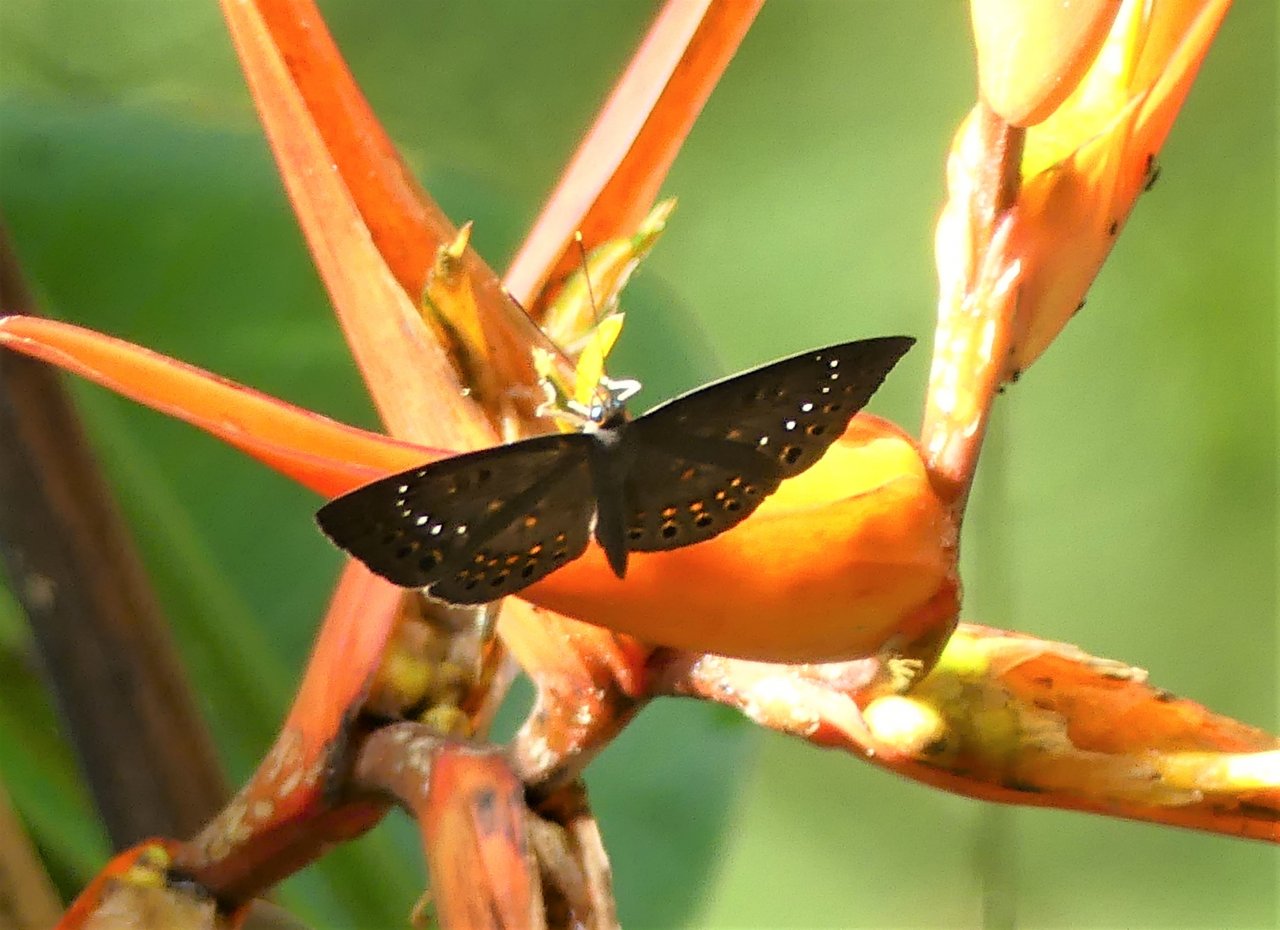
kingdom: Animalia
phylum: Cnidaria
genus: Eurybia
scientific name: Eurybia elvina
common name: Blind Eurybia
